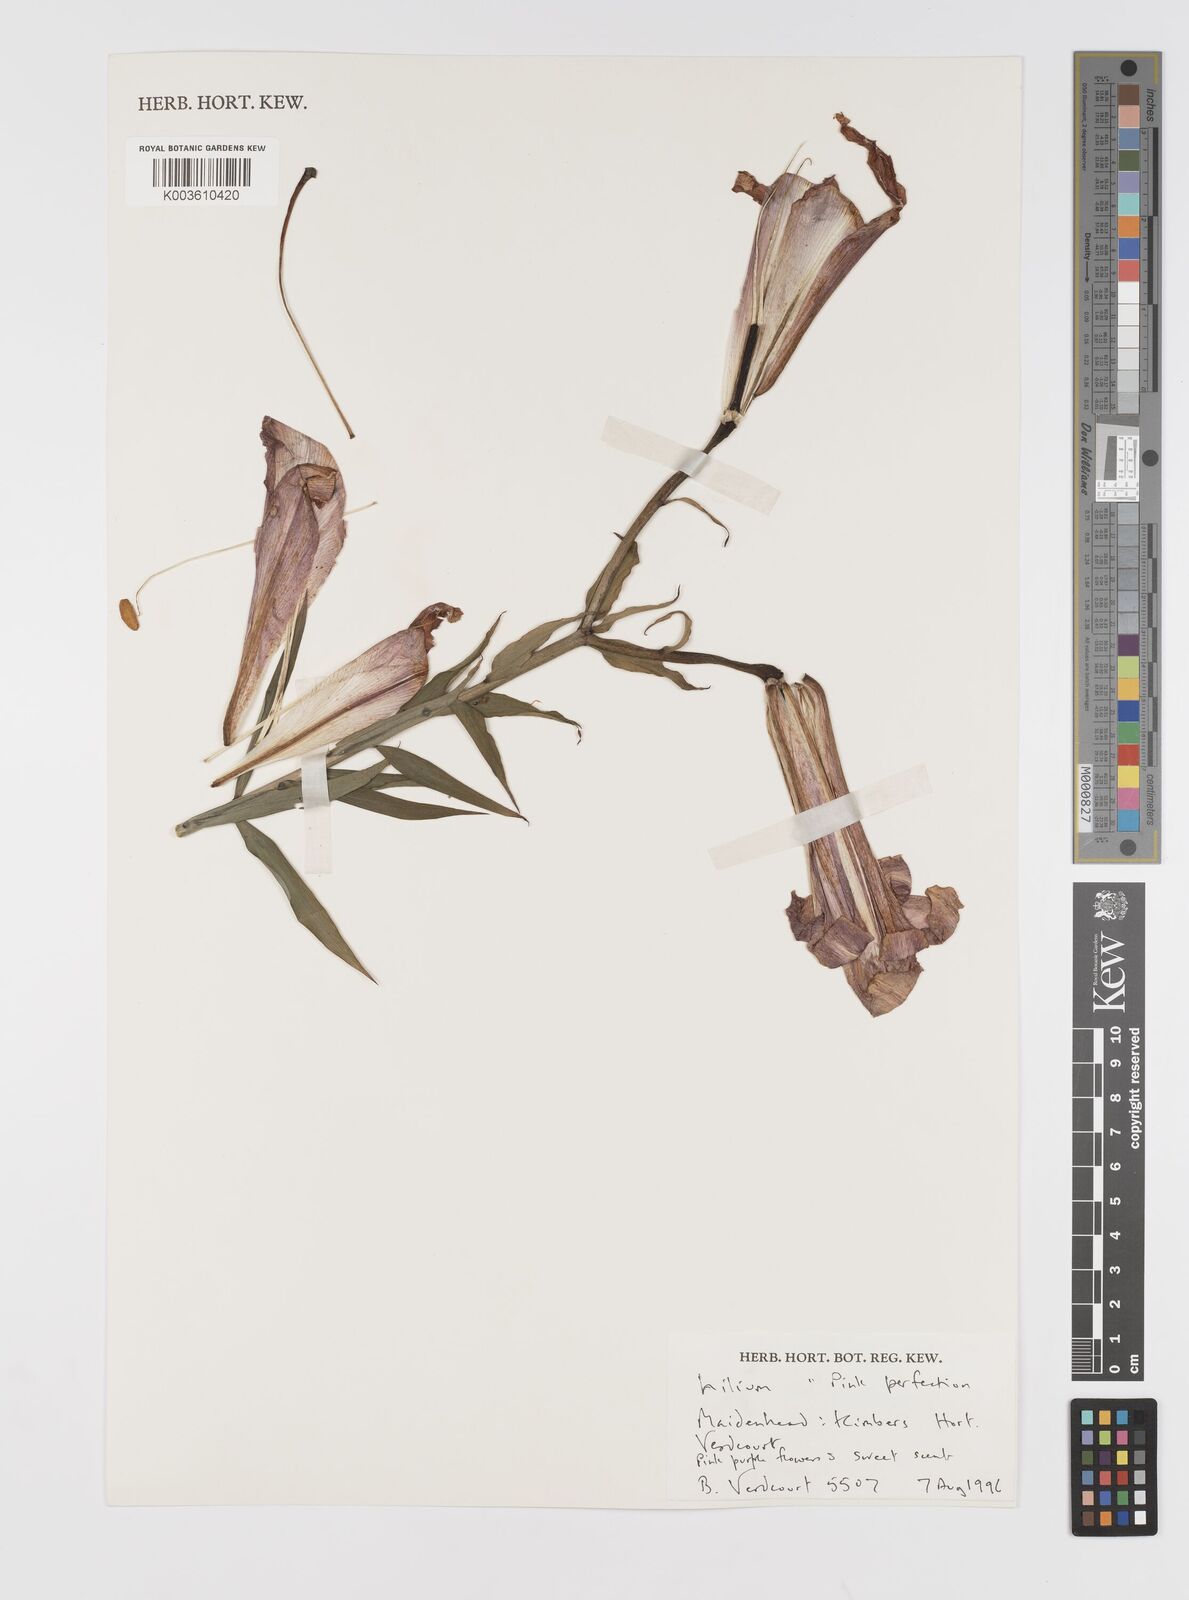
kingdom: Plantae
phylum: Tracheophyta
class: Liliopsida
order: Liliales
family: Liliaceae
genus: Lilium
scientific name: Lilium
